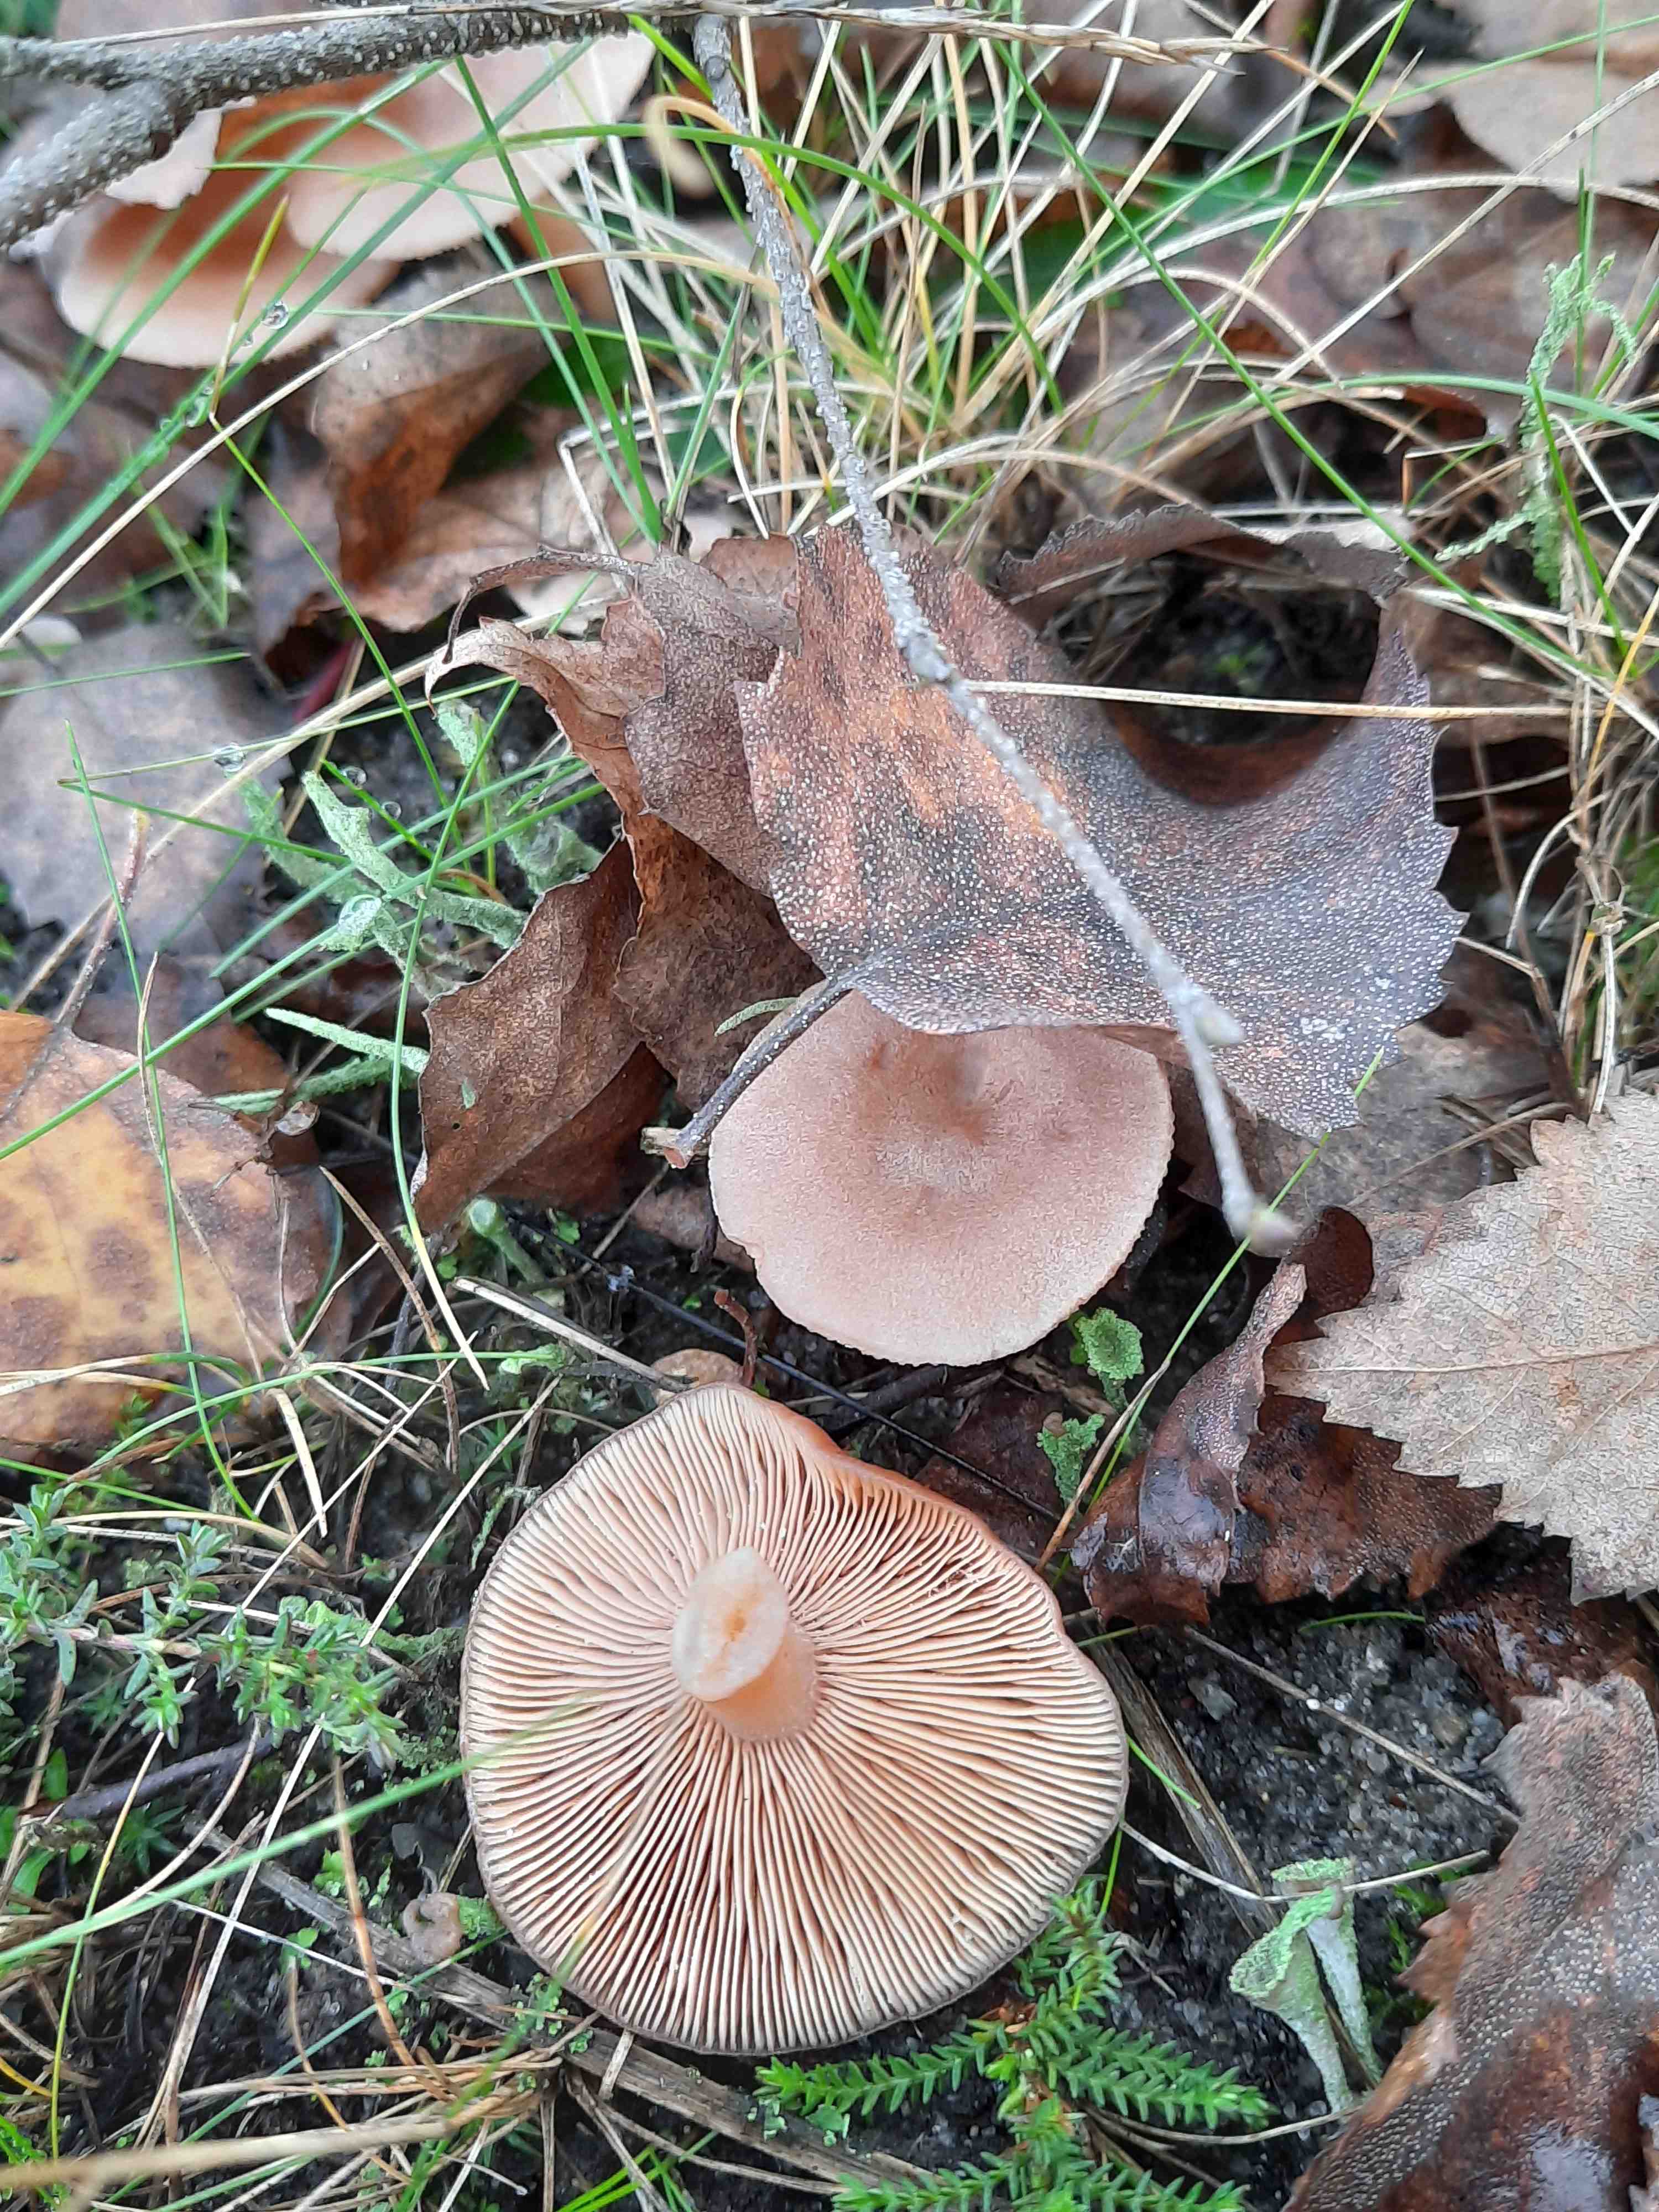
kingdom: Fungi
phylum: Basidiomycota
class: Agaricomycetes
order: Russulales
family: Russulaceae
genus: Lactarius
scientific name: Lactarius glyciosmus
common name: kokos-mælkehat
